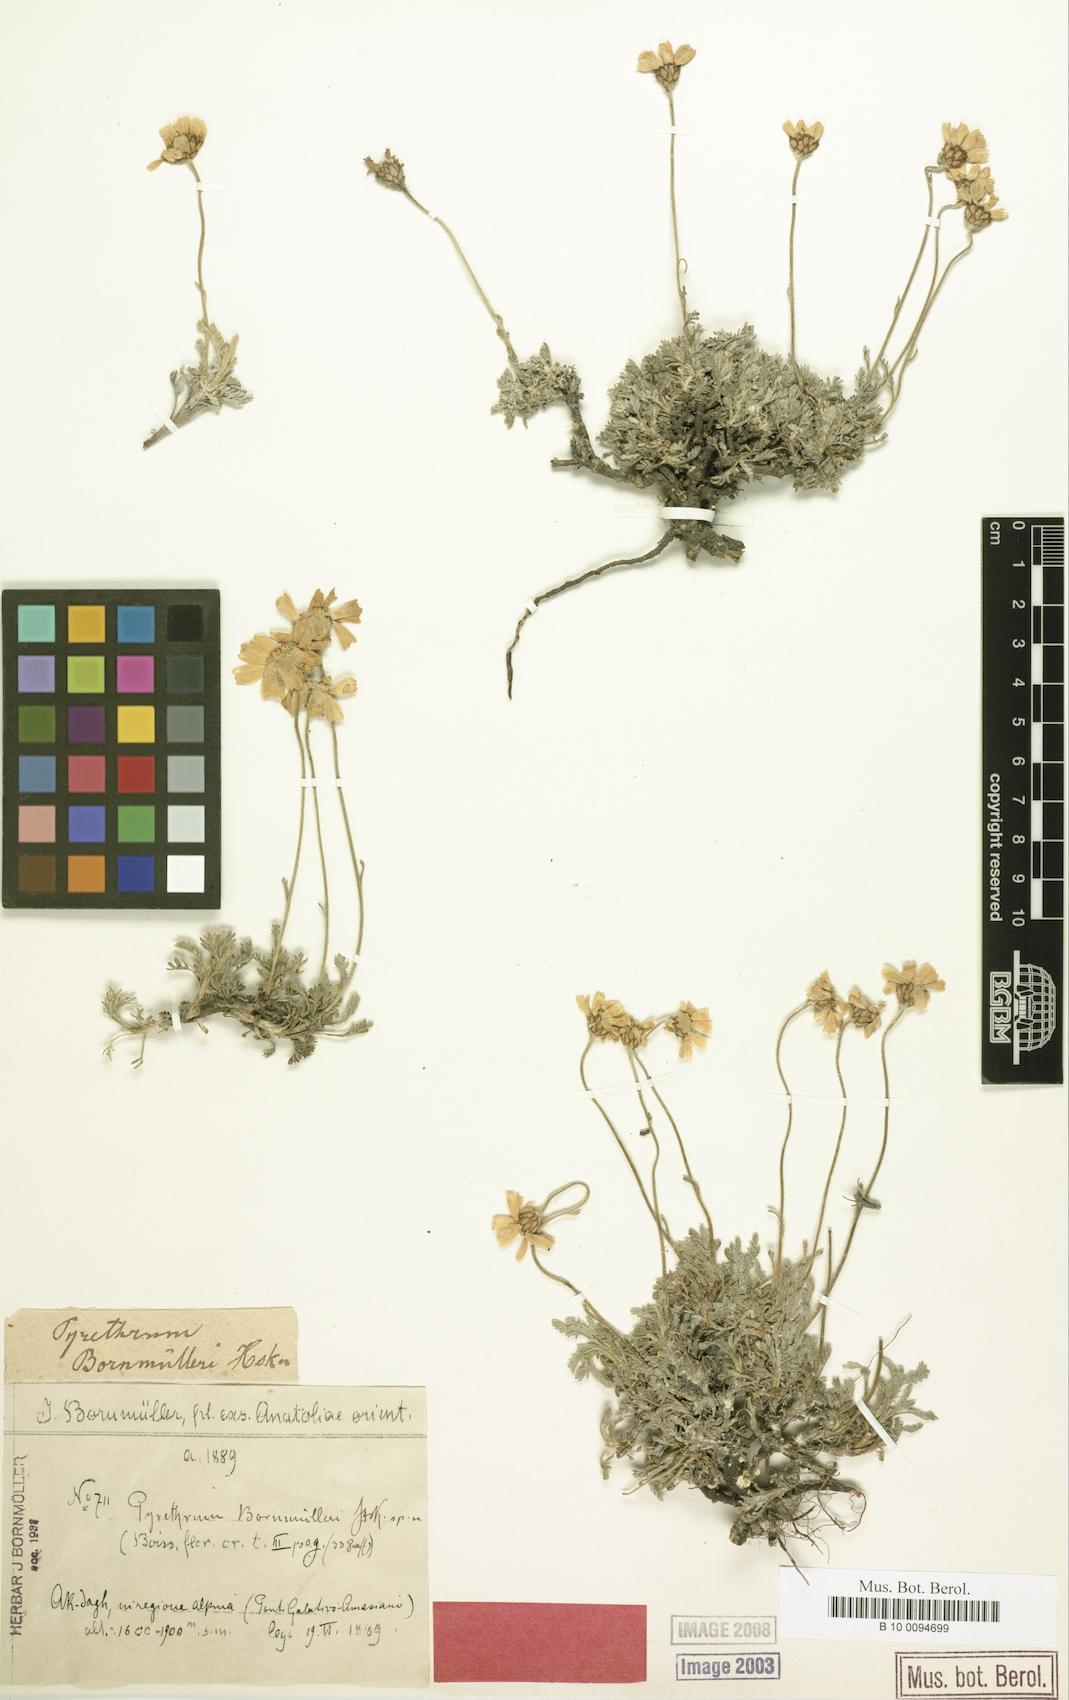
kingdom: Plantae
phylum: Tracheophyta
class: Magnoliopsida
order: Asterales
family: Asteraceae
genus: Tanacetum
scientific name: Tanacetum armenum
